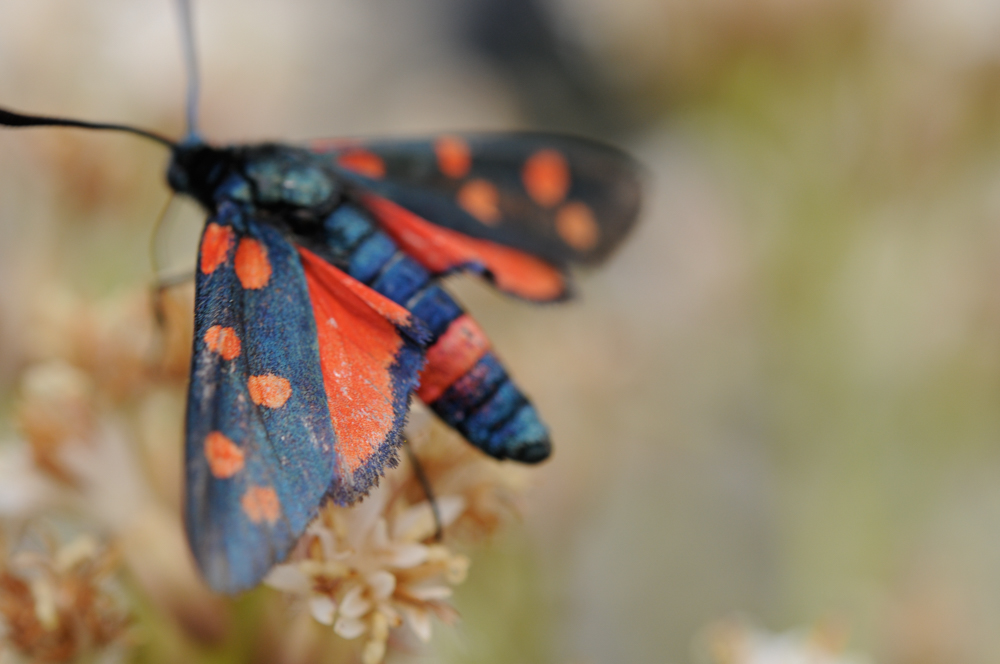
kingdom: Animalia
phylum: Arthropoda
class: Insecta
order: Lepidoptera
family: Zygaenidae
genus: Zygaena
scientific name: Zygaena ephialtes
